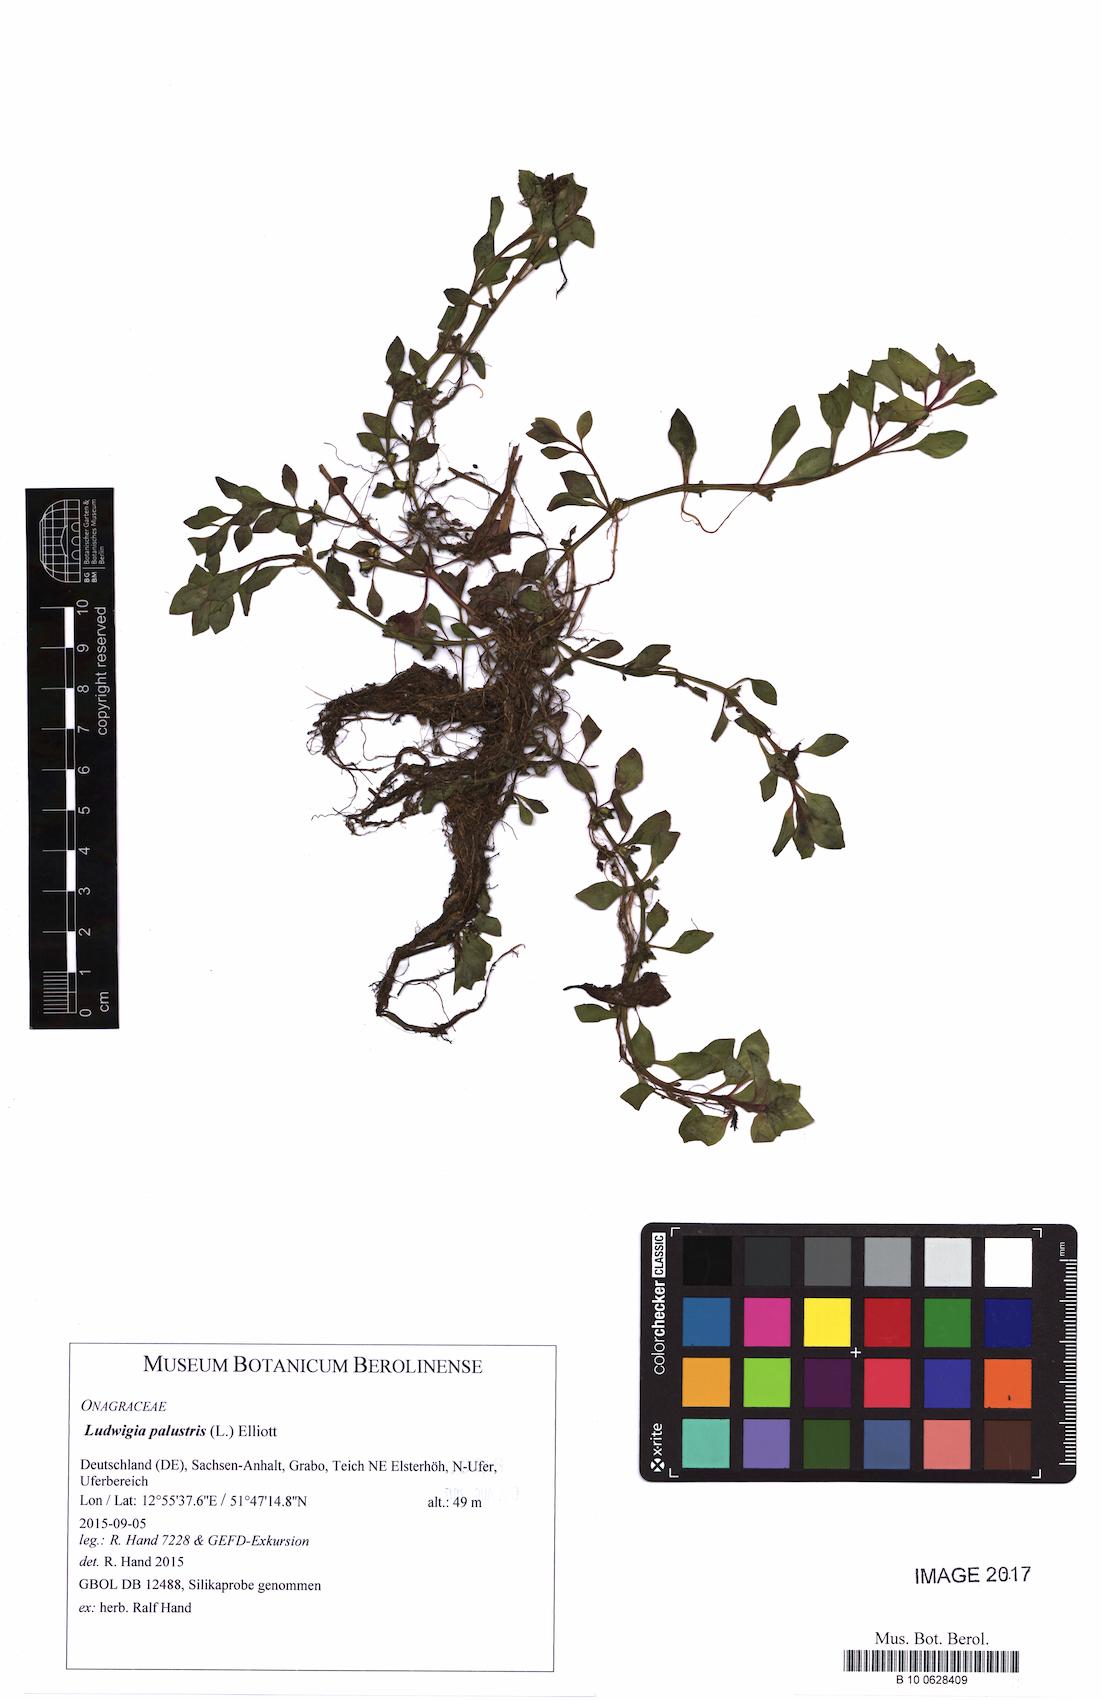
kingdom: Plantae
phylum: Tracheophyta
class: Magnoliopsida
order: Myrtales
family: Onagraceae
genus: Ludwigia
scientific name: Ludwigia palustris
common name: Hampshire-purslane
